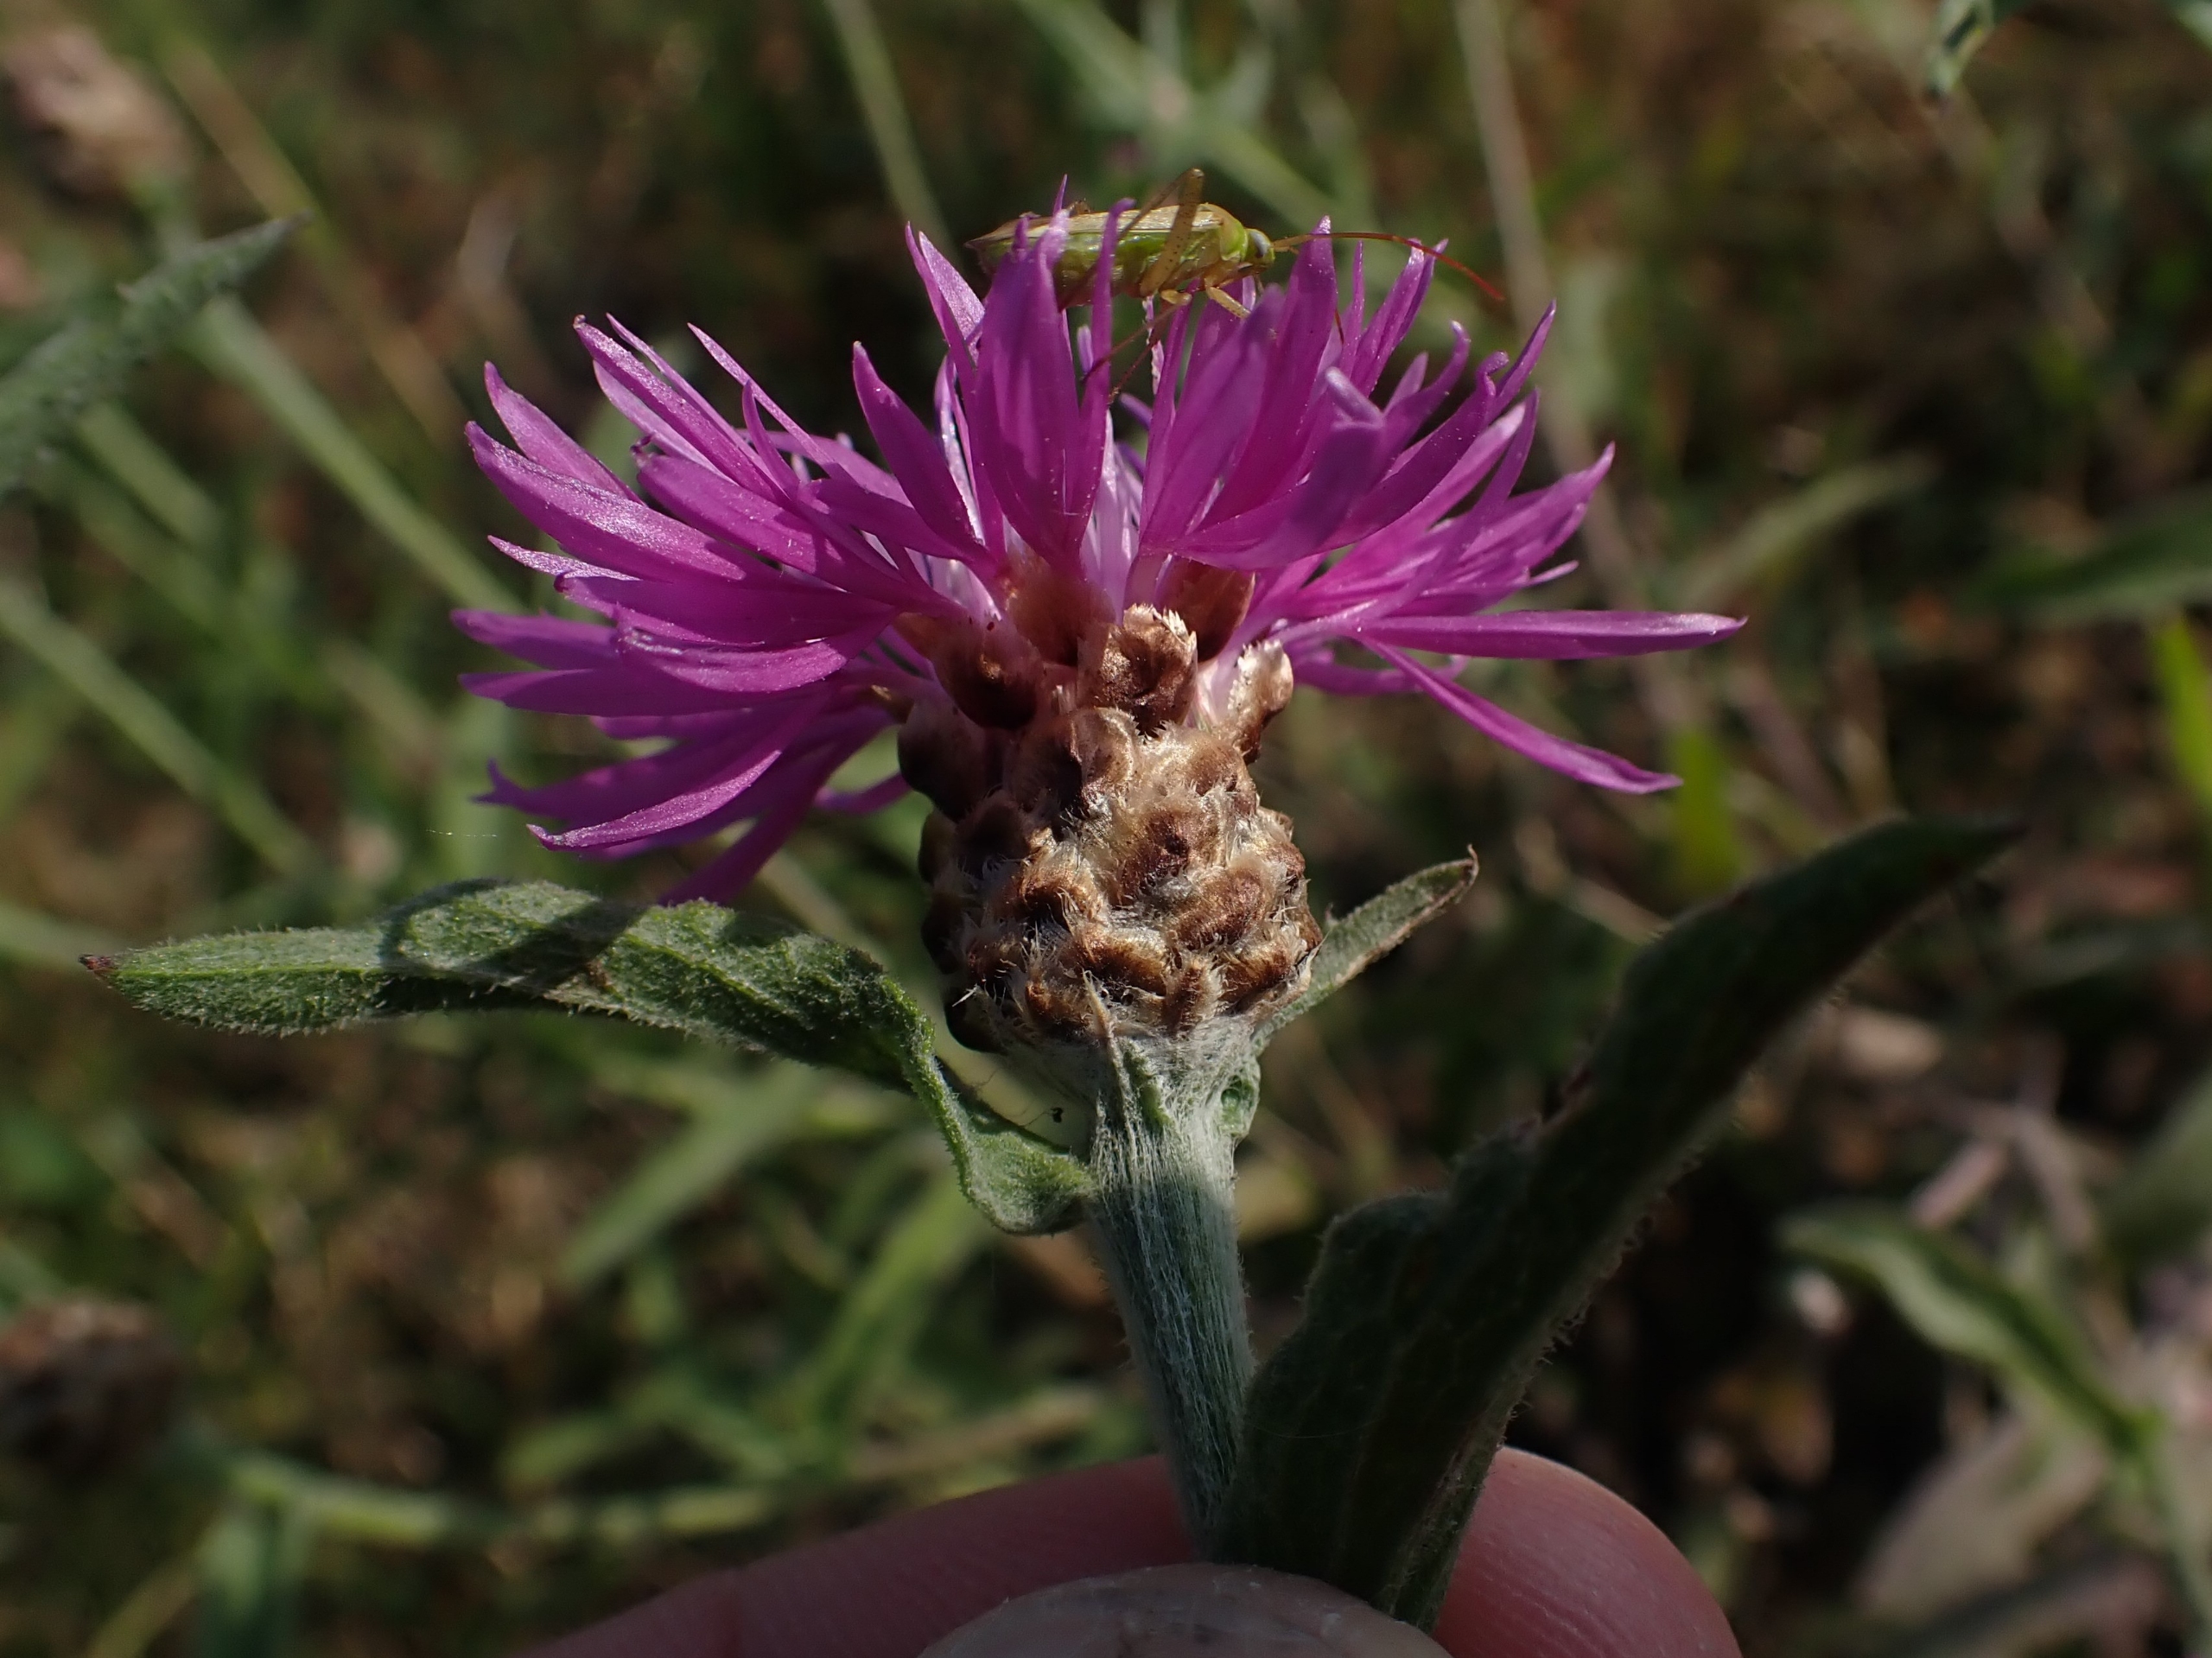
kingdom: Plantae
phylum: Tracheophyta
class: Magnoliopsida
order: Asterales
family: Asteraceae
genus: Centaurea
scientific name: Centaurea jacea
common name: Almindelig knopurt
